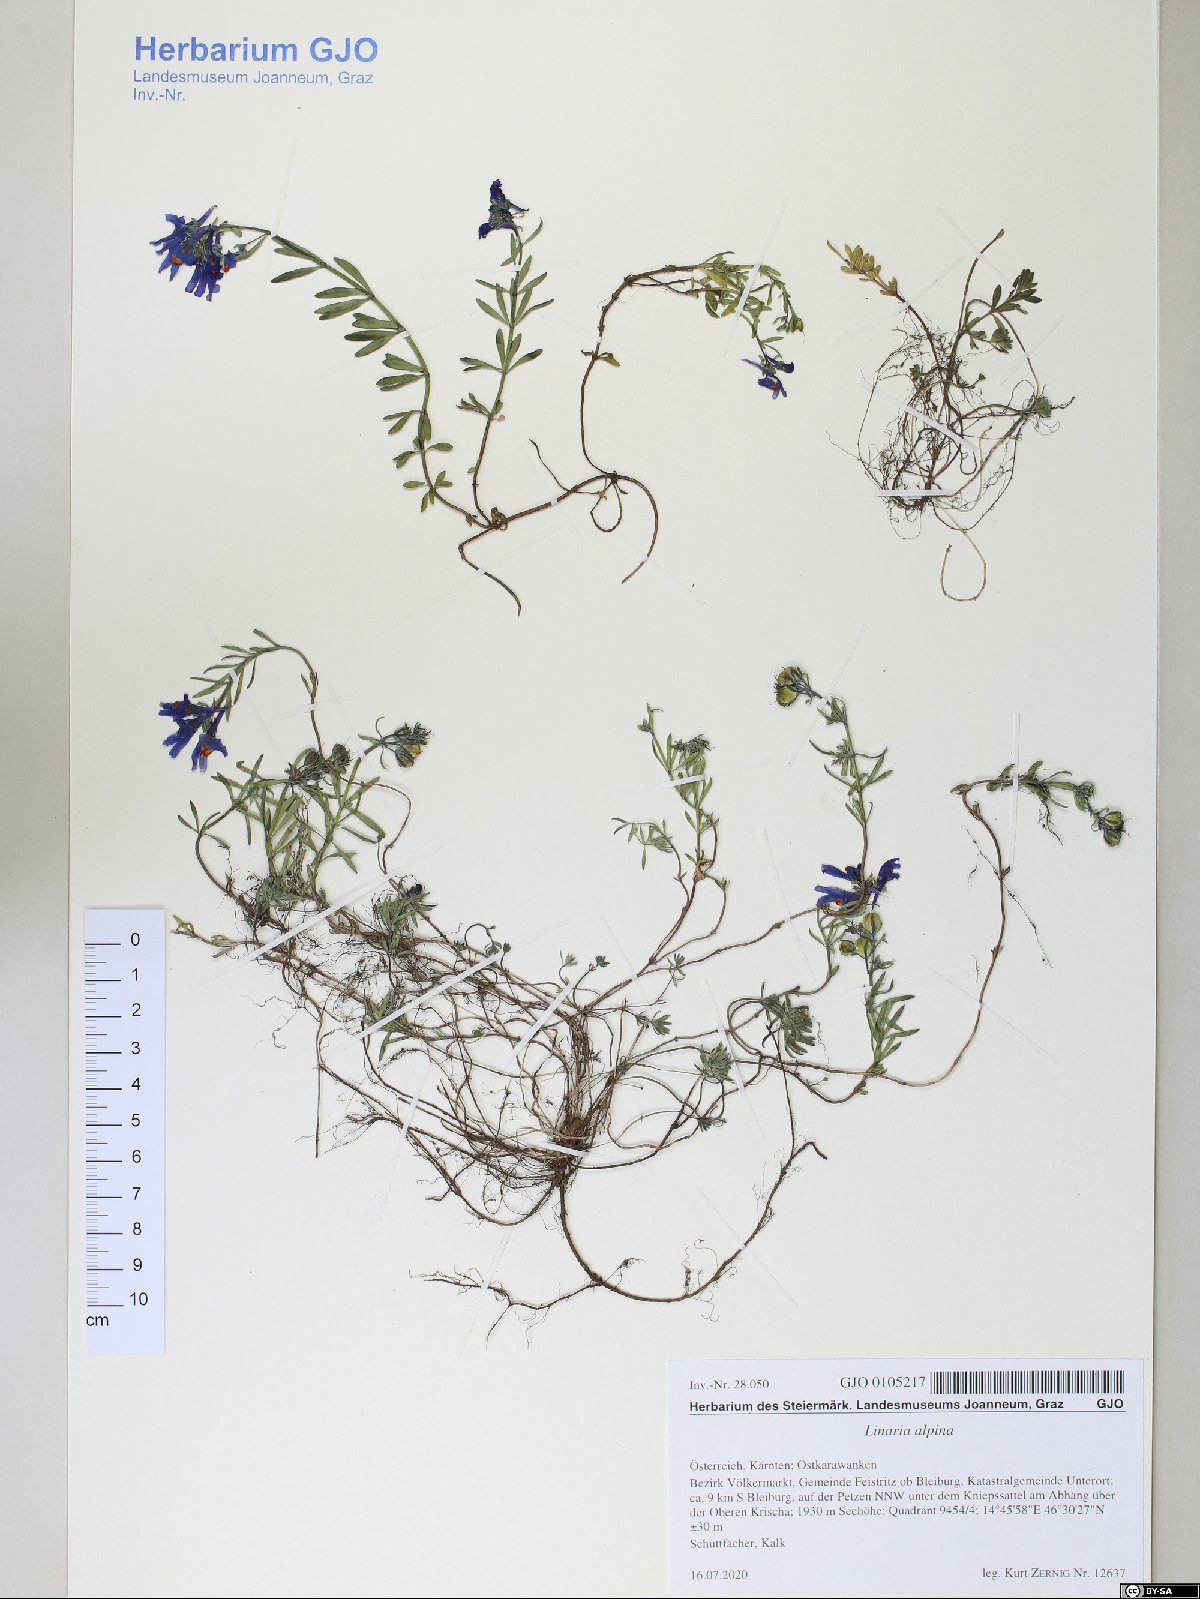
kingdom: Plantae
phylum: Tracheophyta
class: Magnoliopsida
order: Lamiales
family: Plantaginaceae
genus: Linaria
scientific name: Linaria alpina
